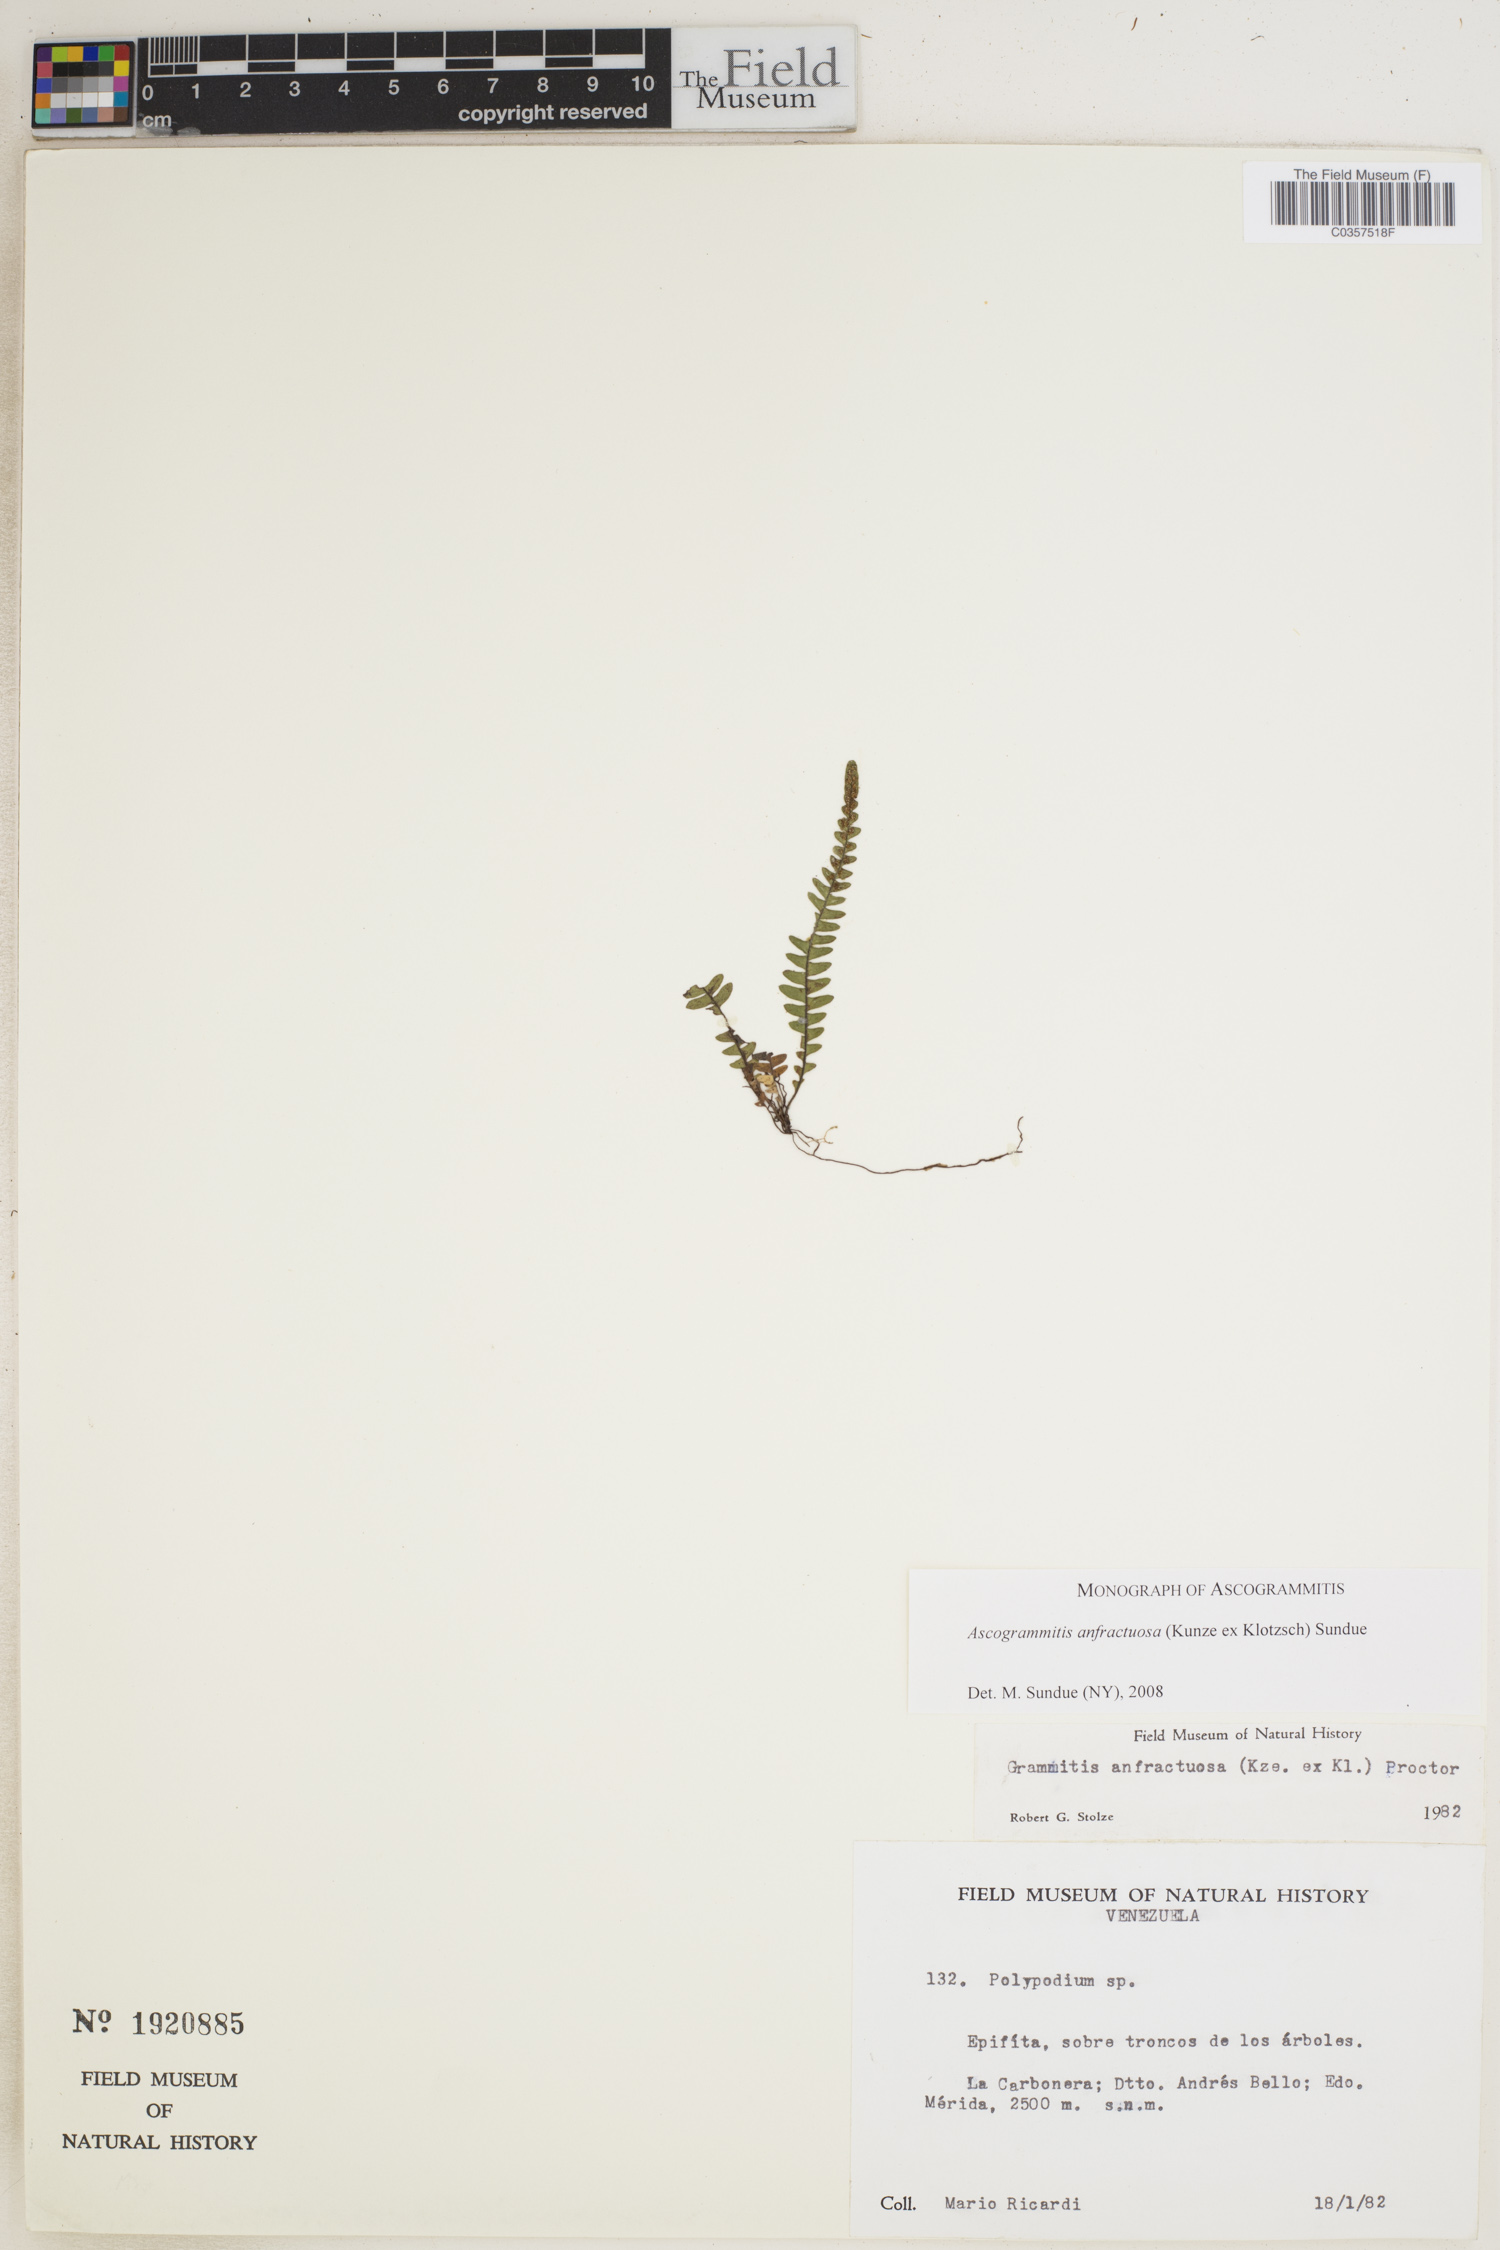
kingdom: Plantae
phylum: Tracheophyta
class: Polypodiopsida
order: Polypodiales
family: Polypodiaceae
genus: Ascogrammitis
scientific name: Ascogrammitis anfractuosa
